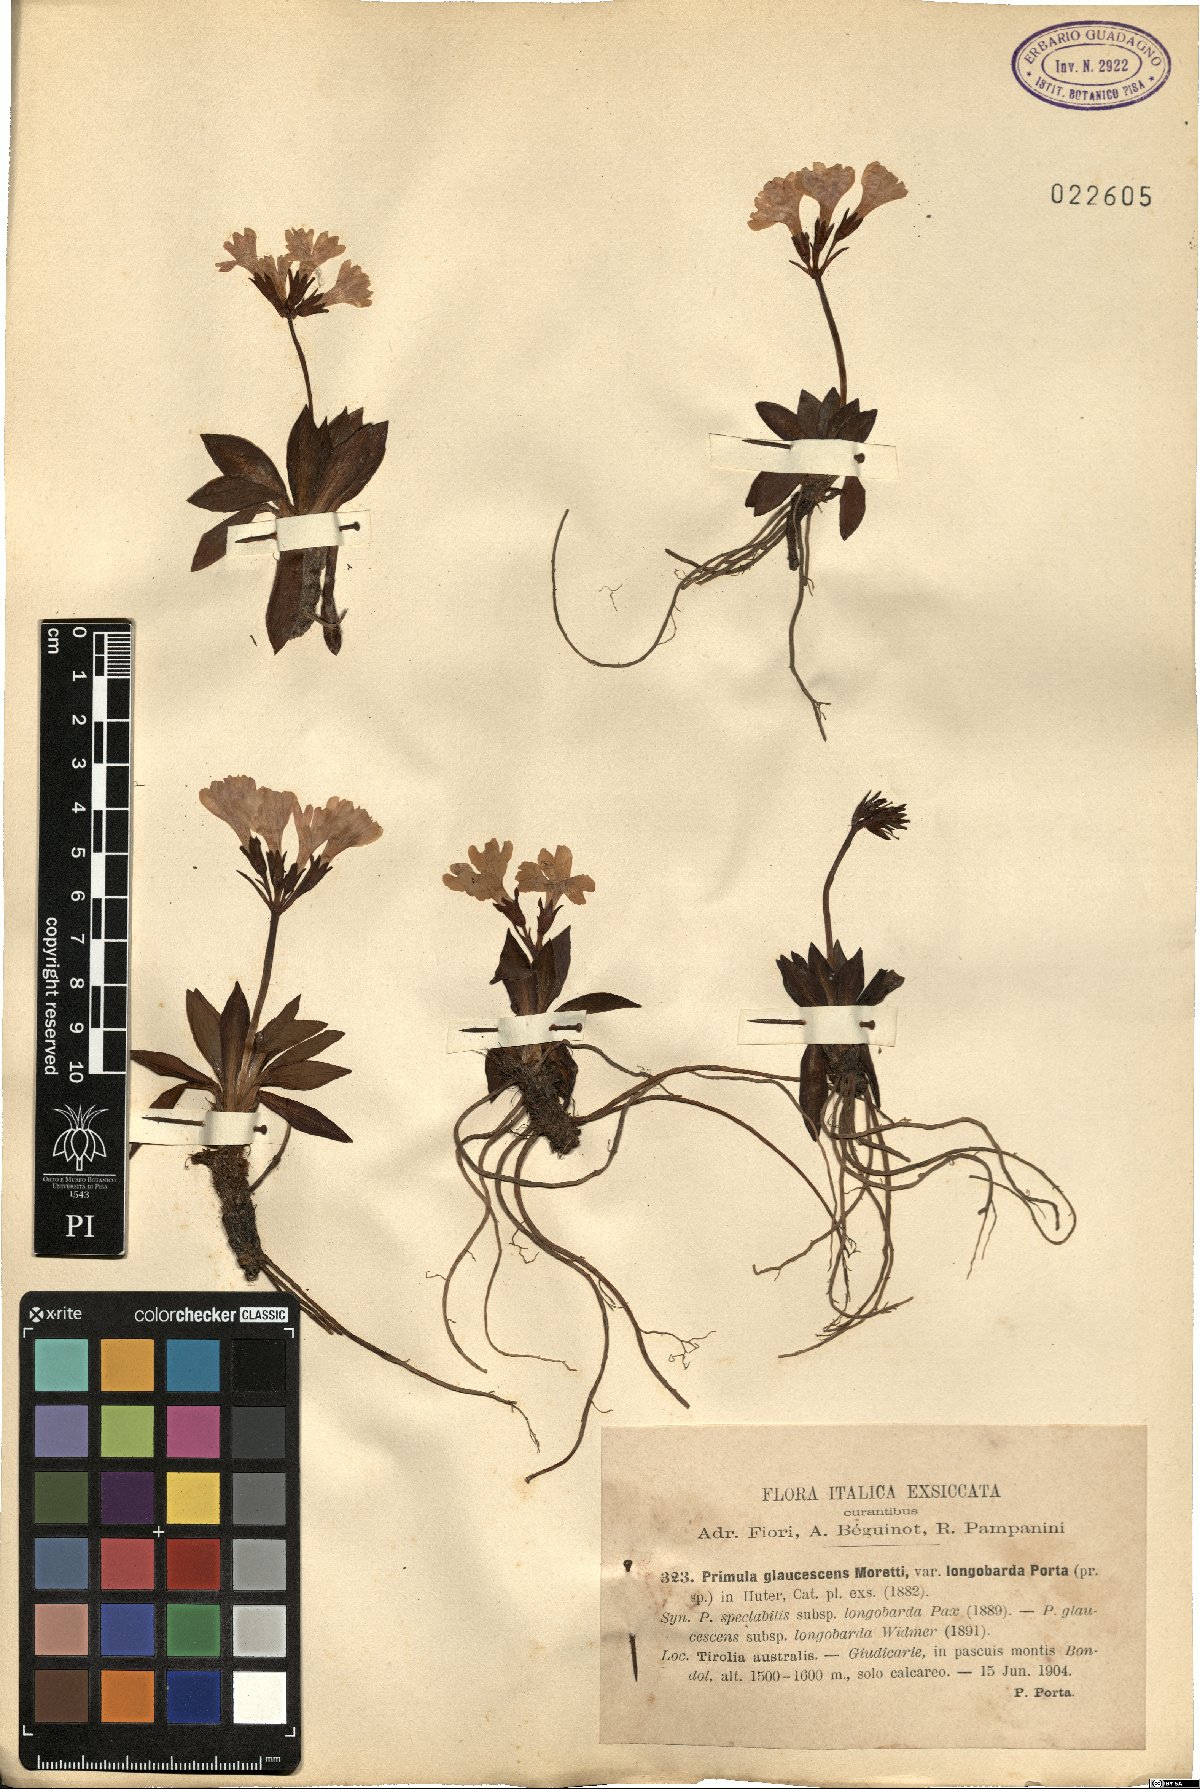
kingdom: Plantae
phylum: Tracheophyta
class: Magnoliopsida
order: Ericales
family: Primulaceae
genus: Primula
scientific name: Primula glaucescens
